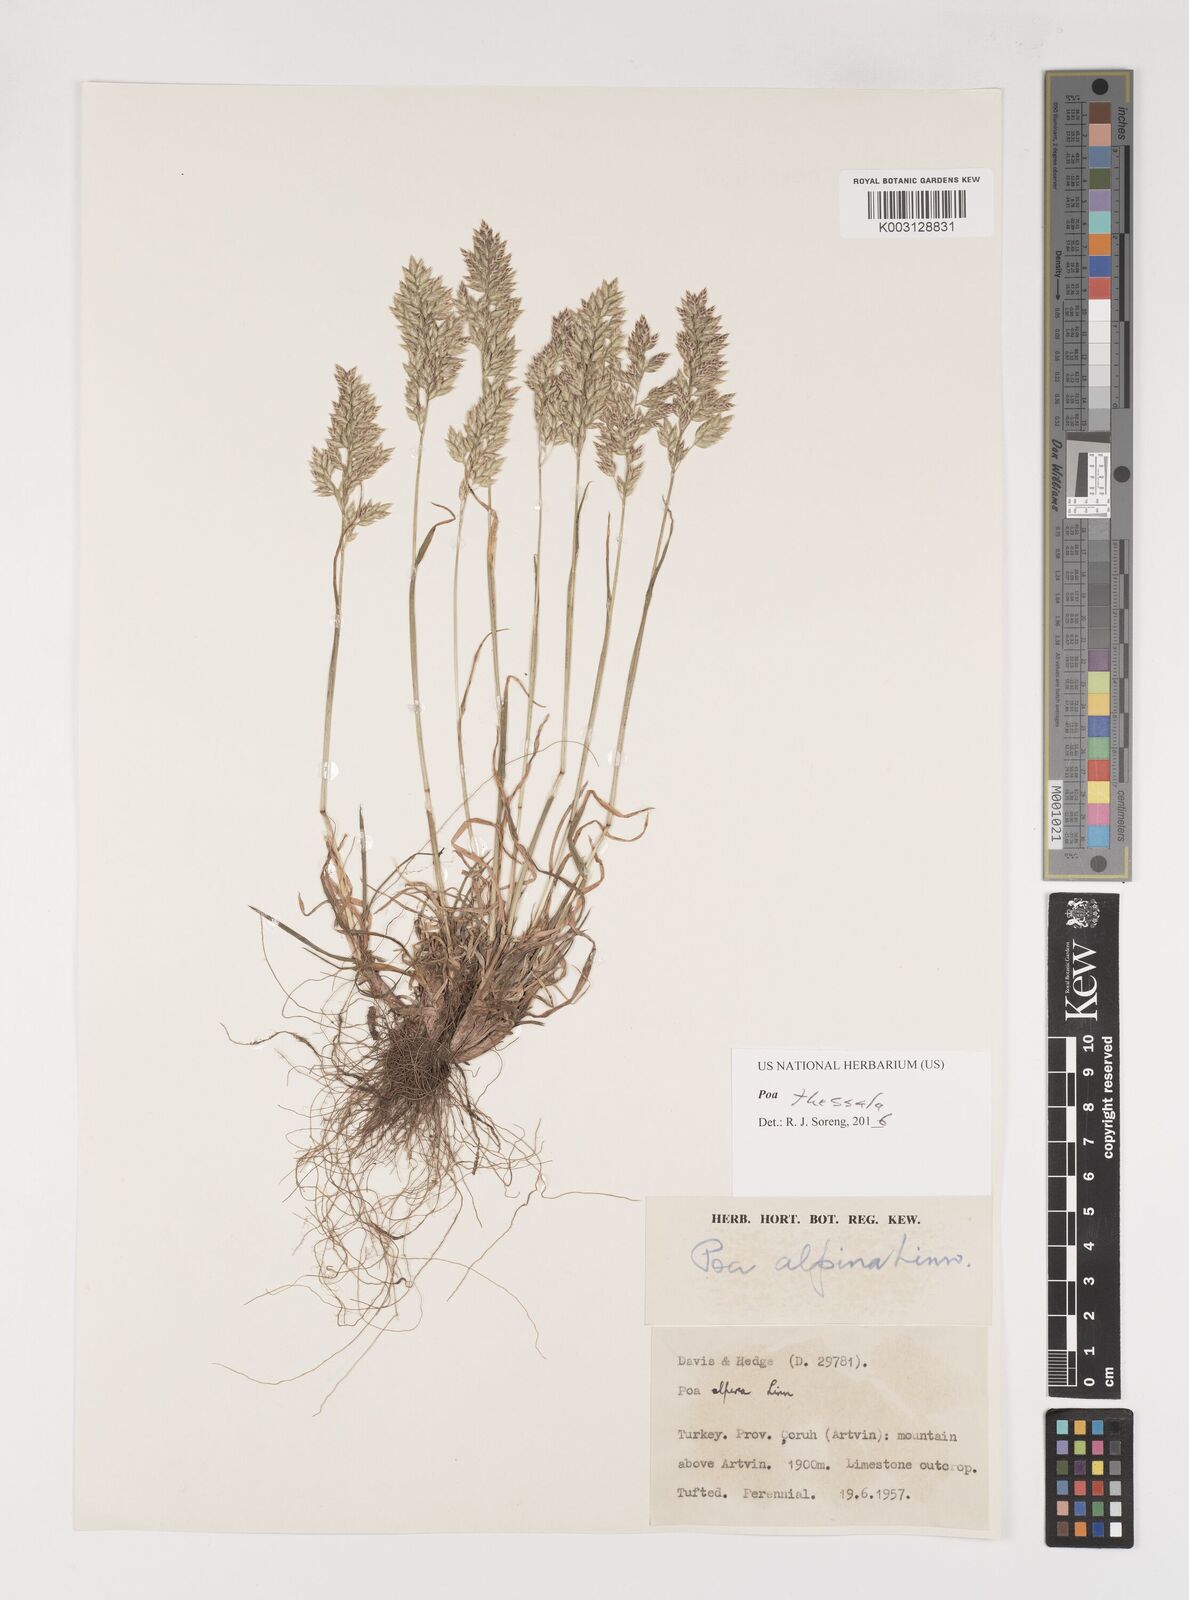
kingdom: Plantae
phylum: Tracheophyta
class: Liliopsida
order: Poales
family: Poaceae
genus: Poa
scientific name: Poa thessala
